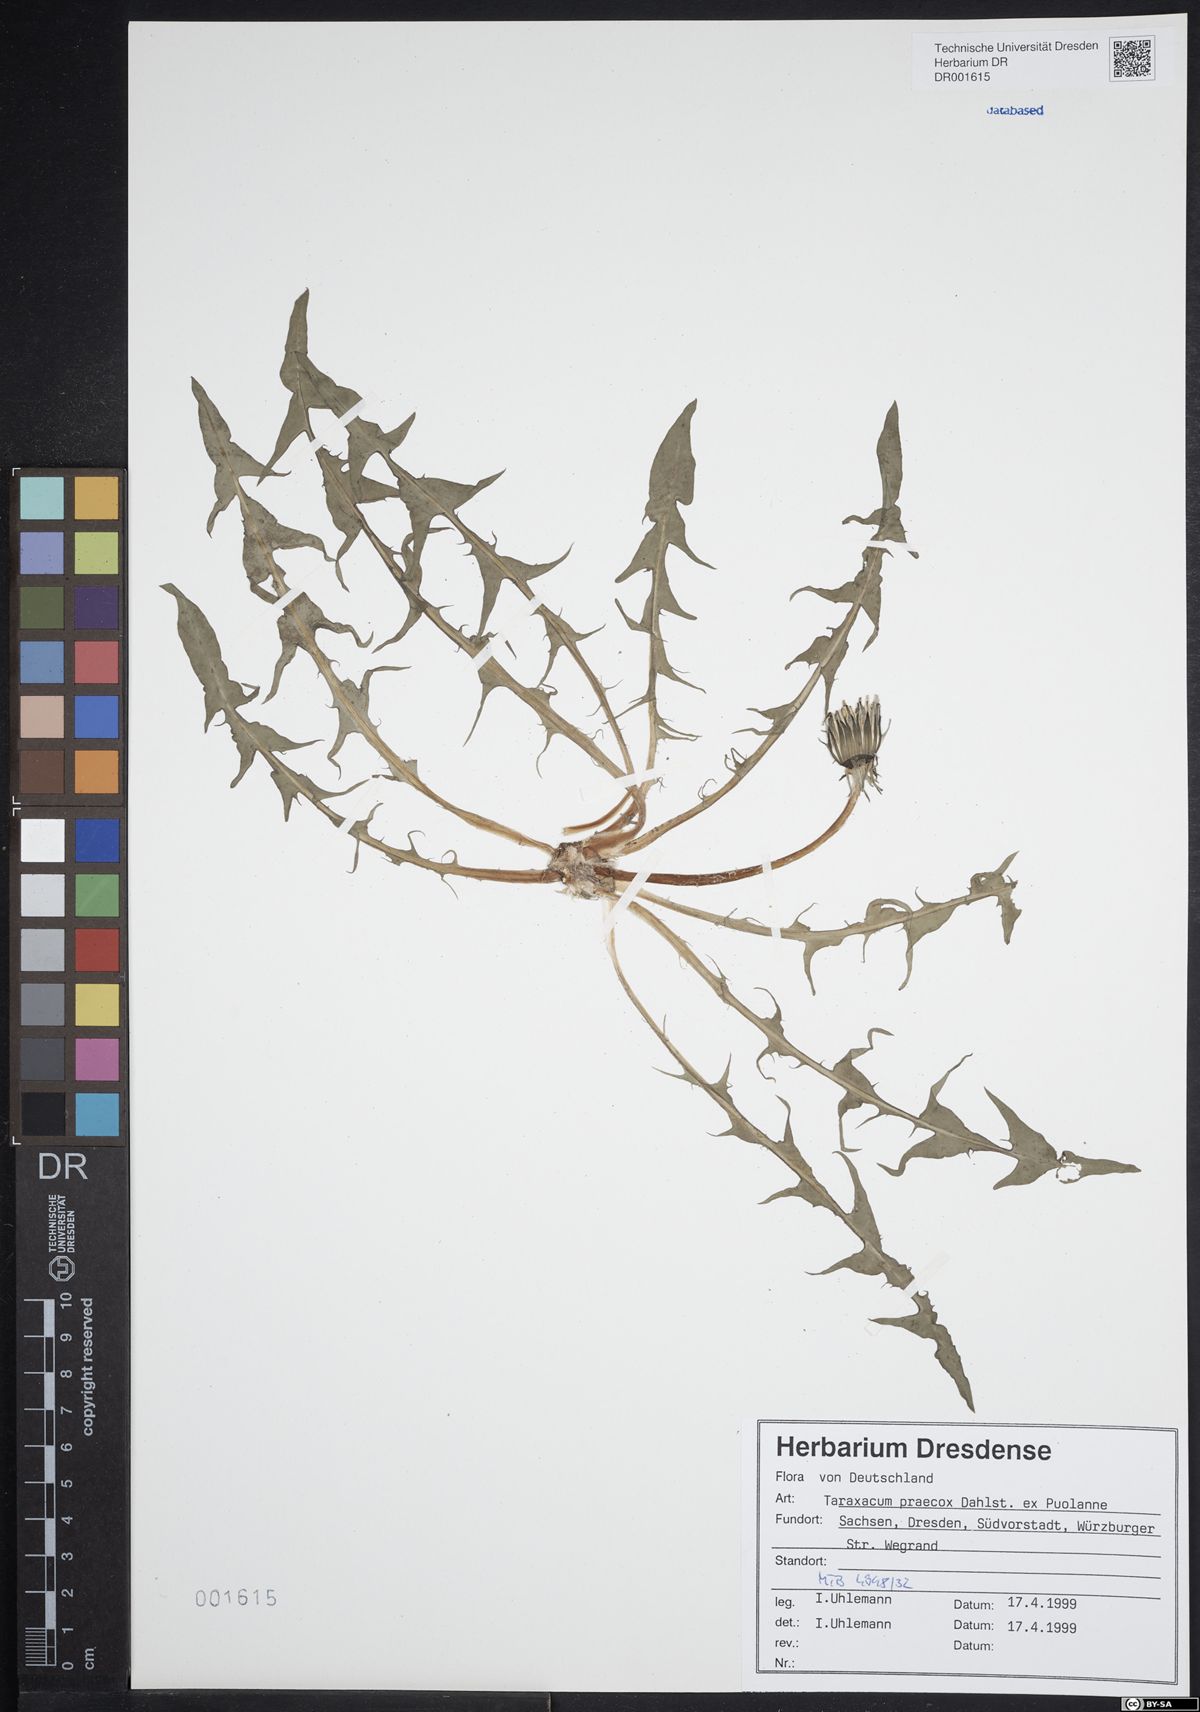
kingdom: Plantae
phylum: Tracheophyta
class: Magnoliopsida
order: Asterales
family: Asteraceae
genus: Taraxacum
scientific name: Taraxacum praecox
